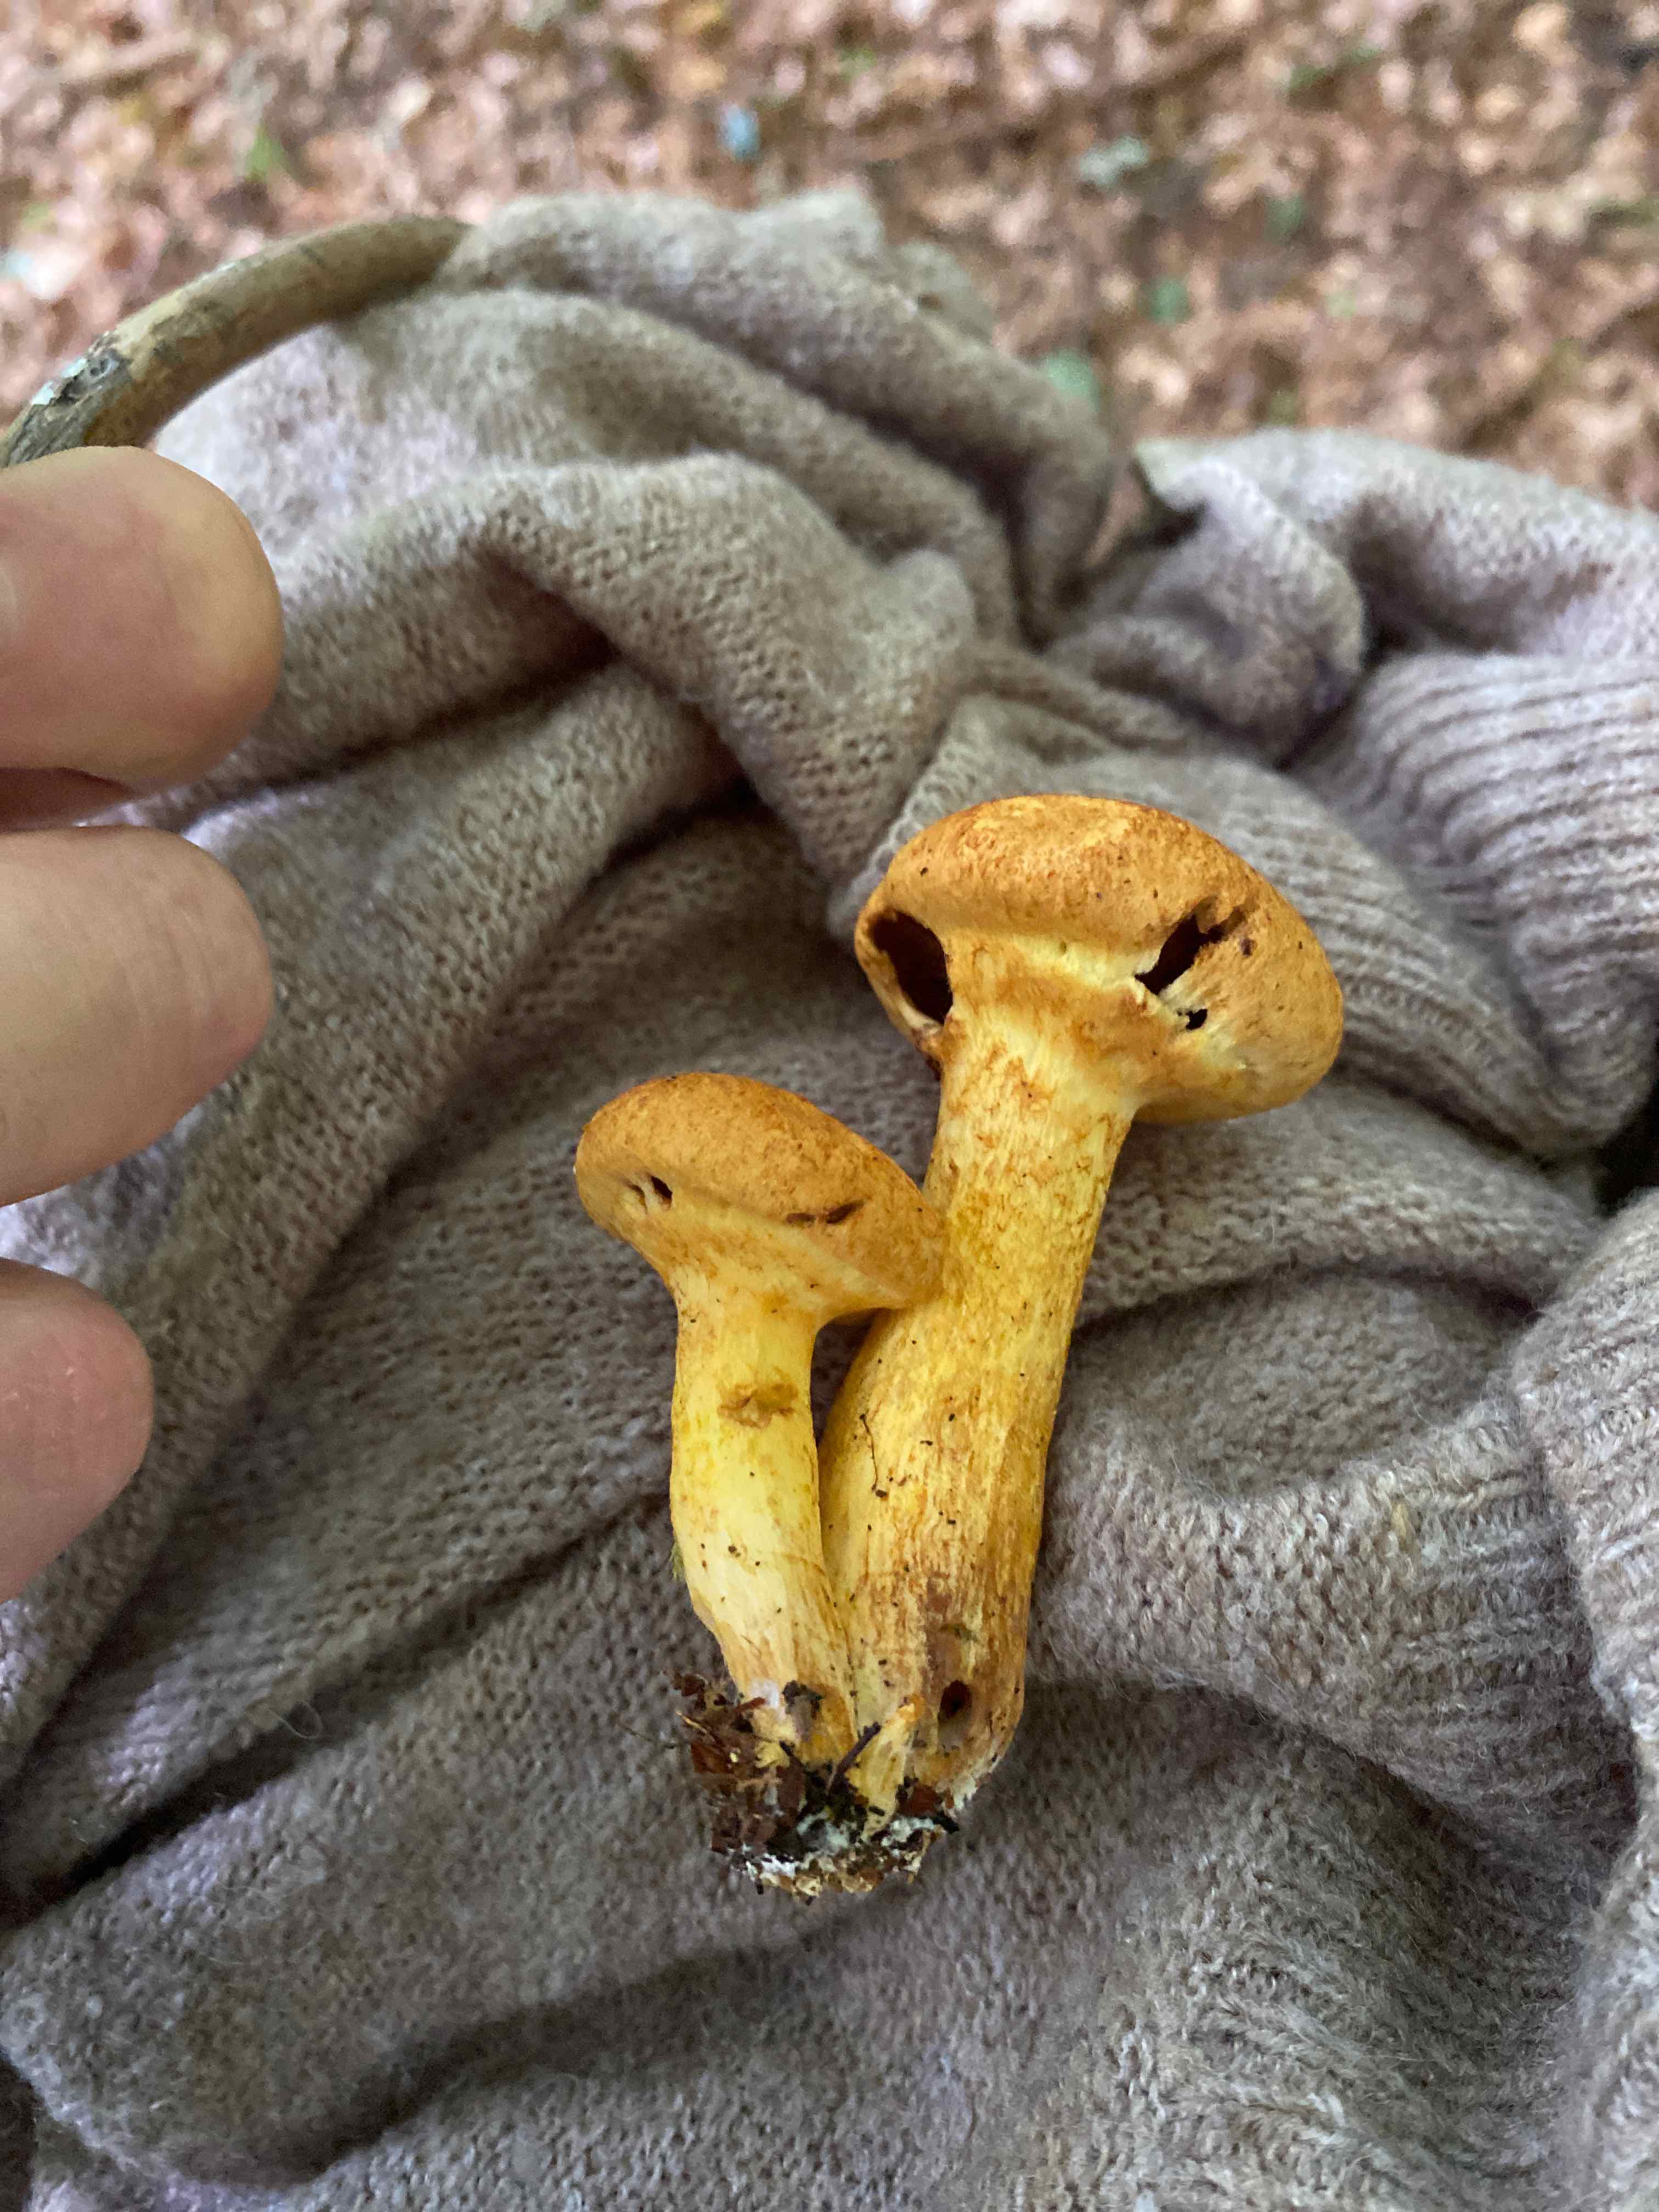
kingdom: Fungi
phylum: Basidiomycota
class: Agaricomycetes
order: Agaricales
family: Hymenogastraceae
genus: Gymnopilus
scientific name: Gymnopilus spectabilis
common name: fibret flammehat
